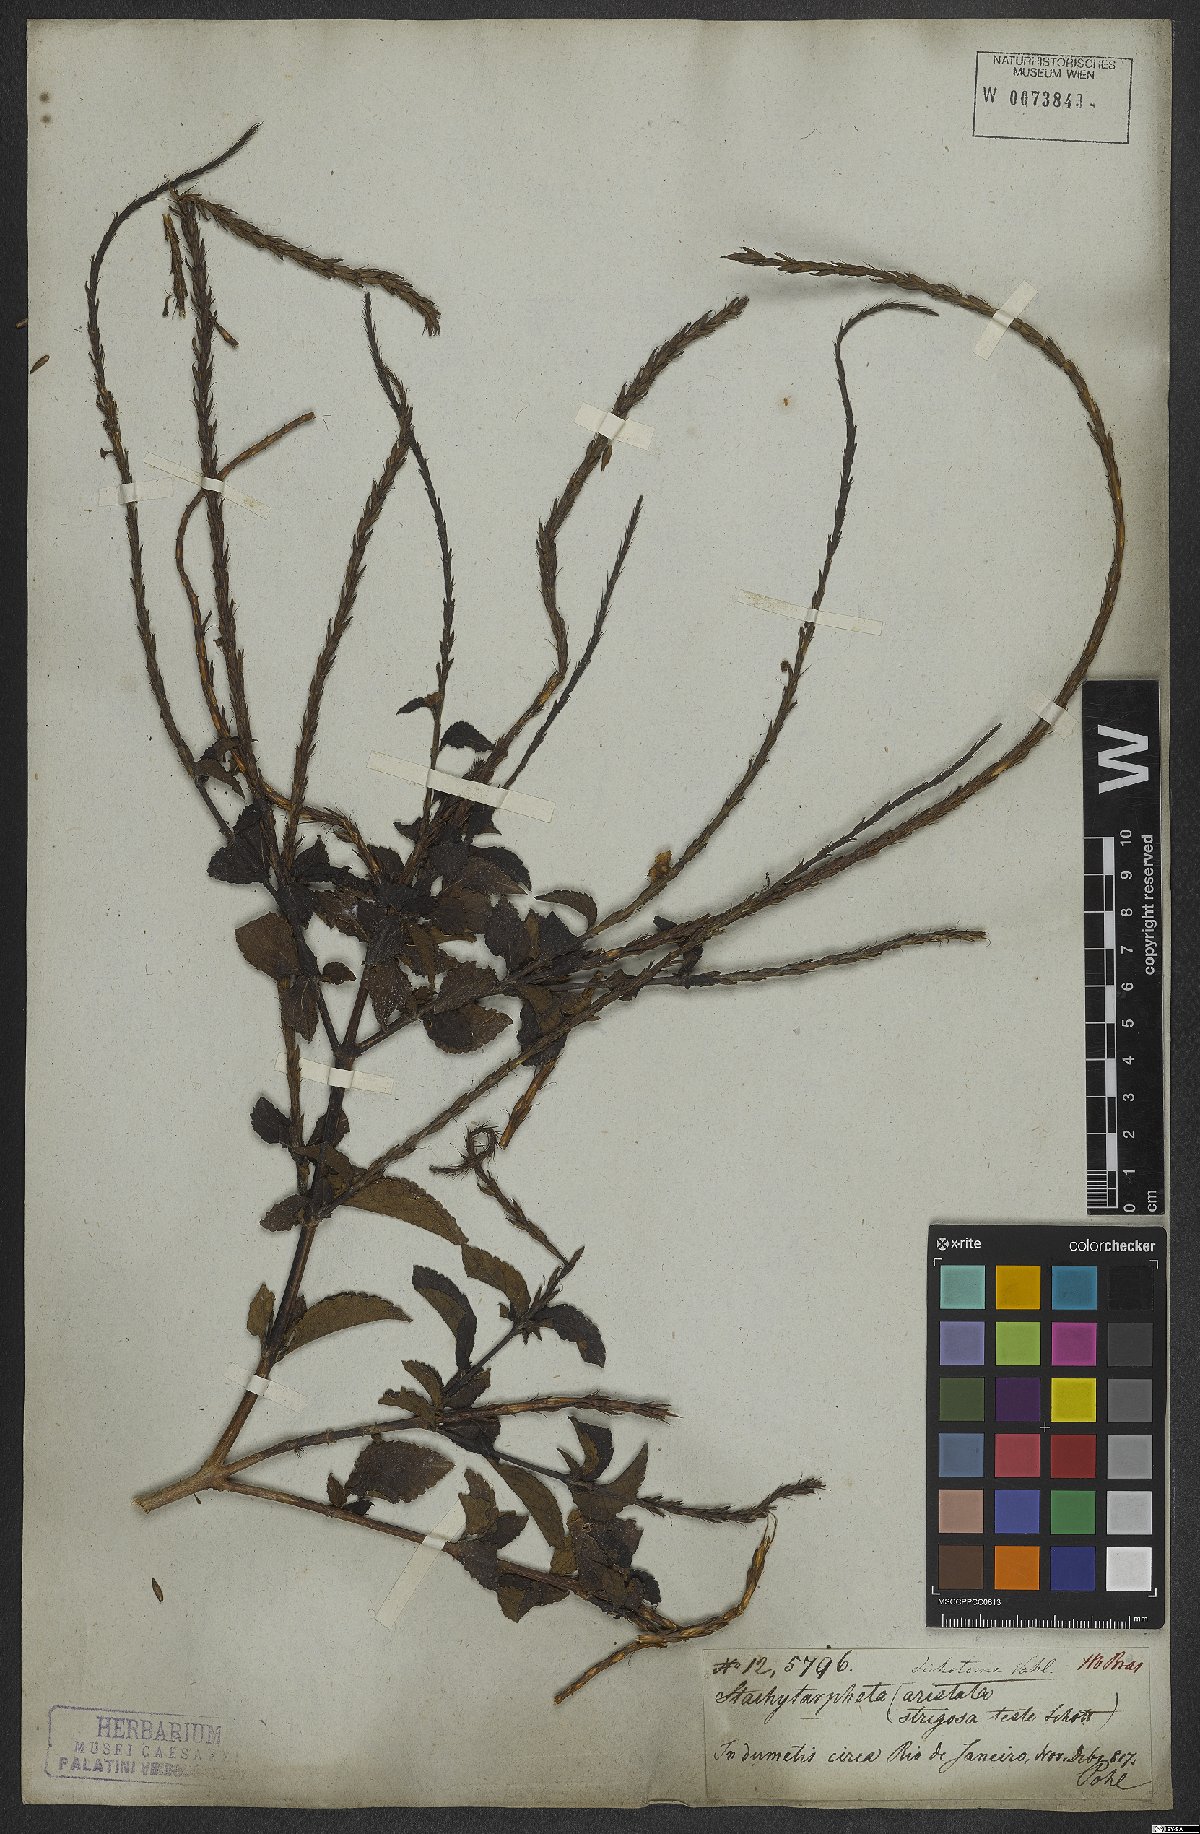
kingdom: Plantae
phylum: Tracheophyta
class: Magnoliopsida
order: Lamiales
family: Verbenaceae
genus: Stachytarpheta
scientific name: Stachytarpheta cayennensis
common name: Cayenne porterweed
